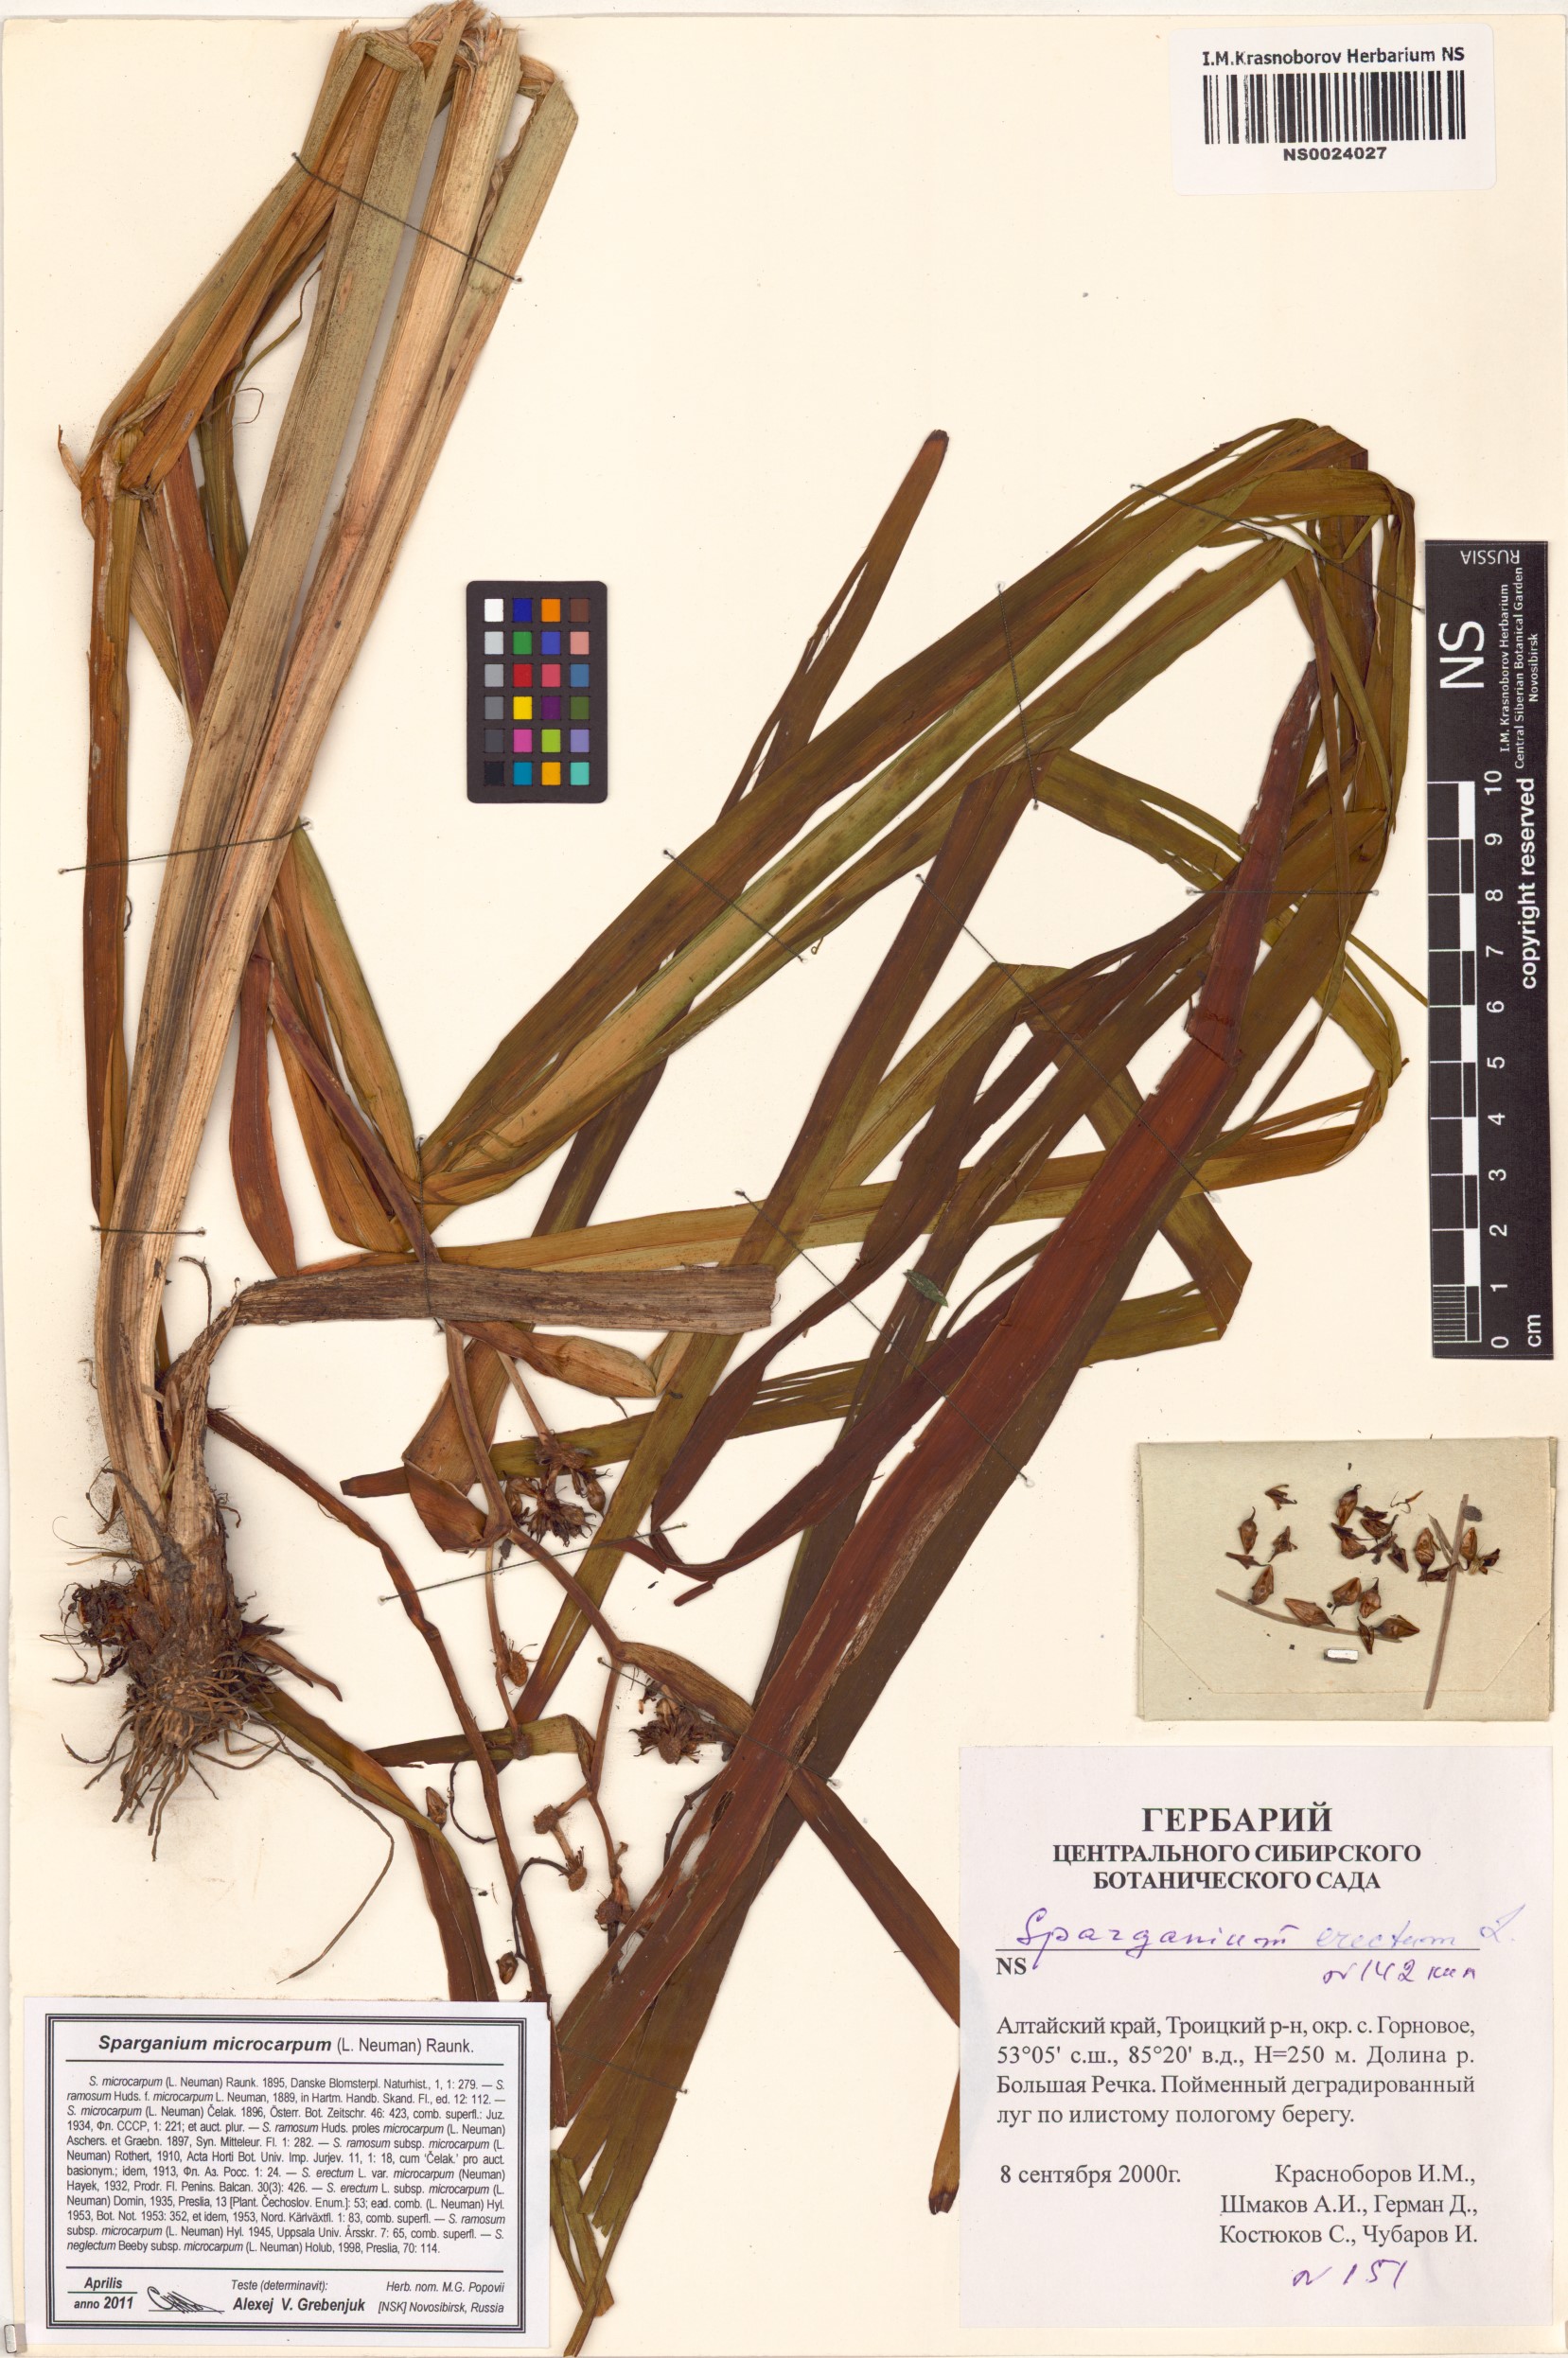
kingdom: Plantae
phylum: Tracheophyta
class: Liliopsida
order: Poales
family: Typhaceae
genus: Sparganium
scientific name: Sparganium erectum
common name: Branched bur-reed
